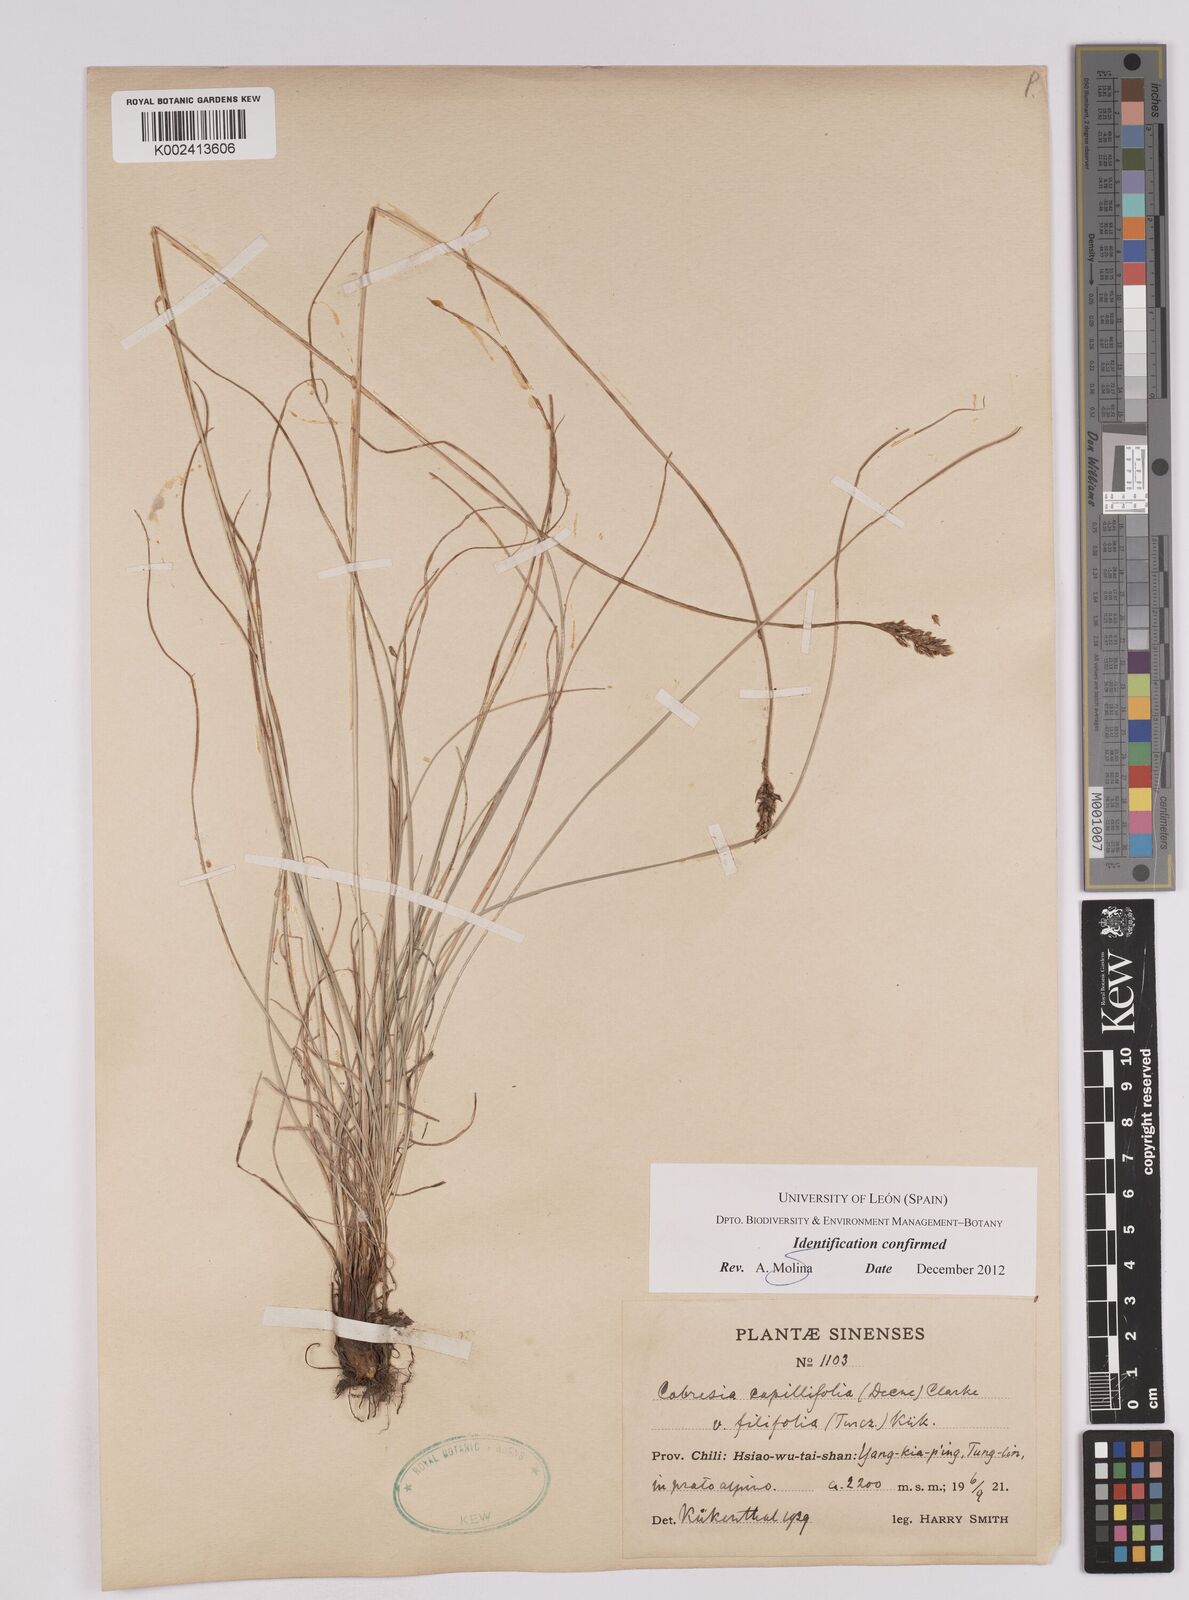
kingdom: Plantae
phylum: Tracheophyta
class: Liliopsida
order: Poales
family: Cyperaceae
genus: Carex
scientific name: Carex macroprophylla
